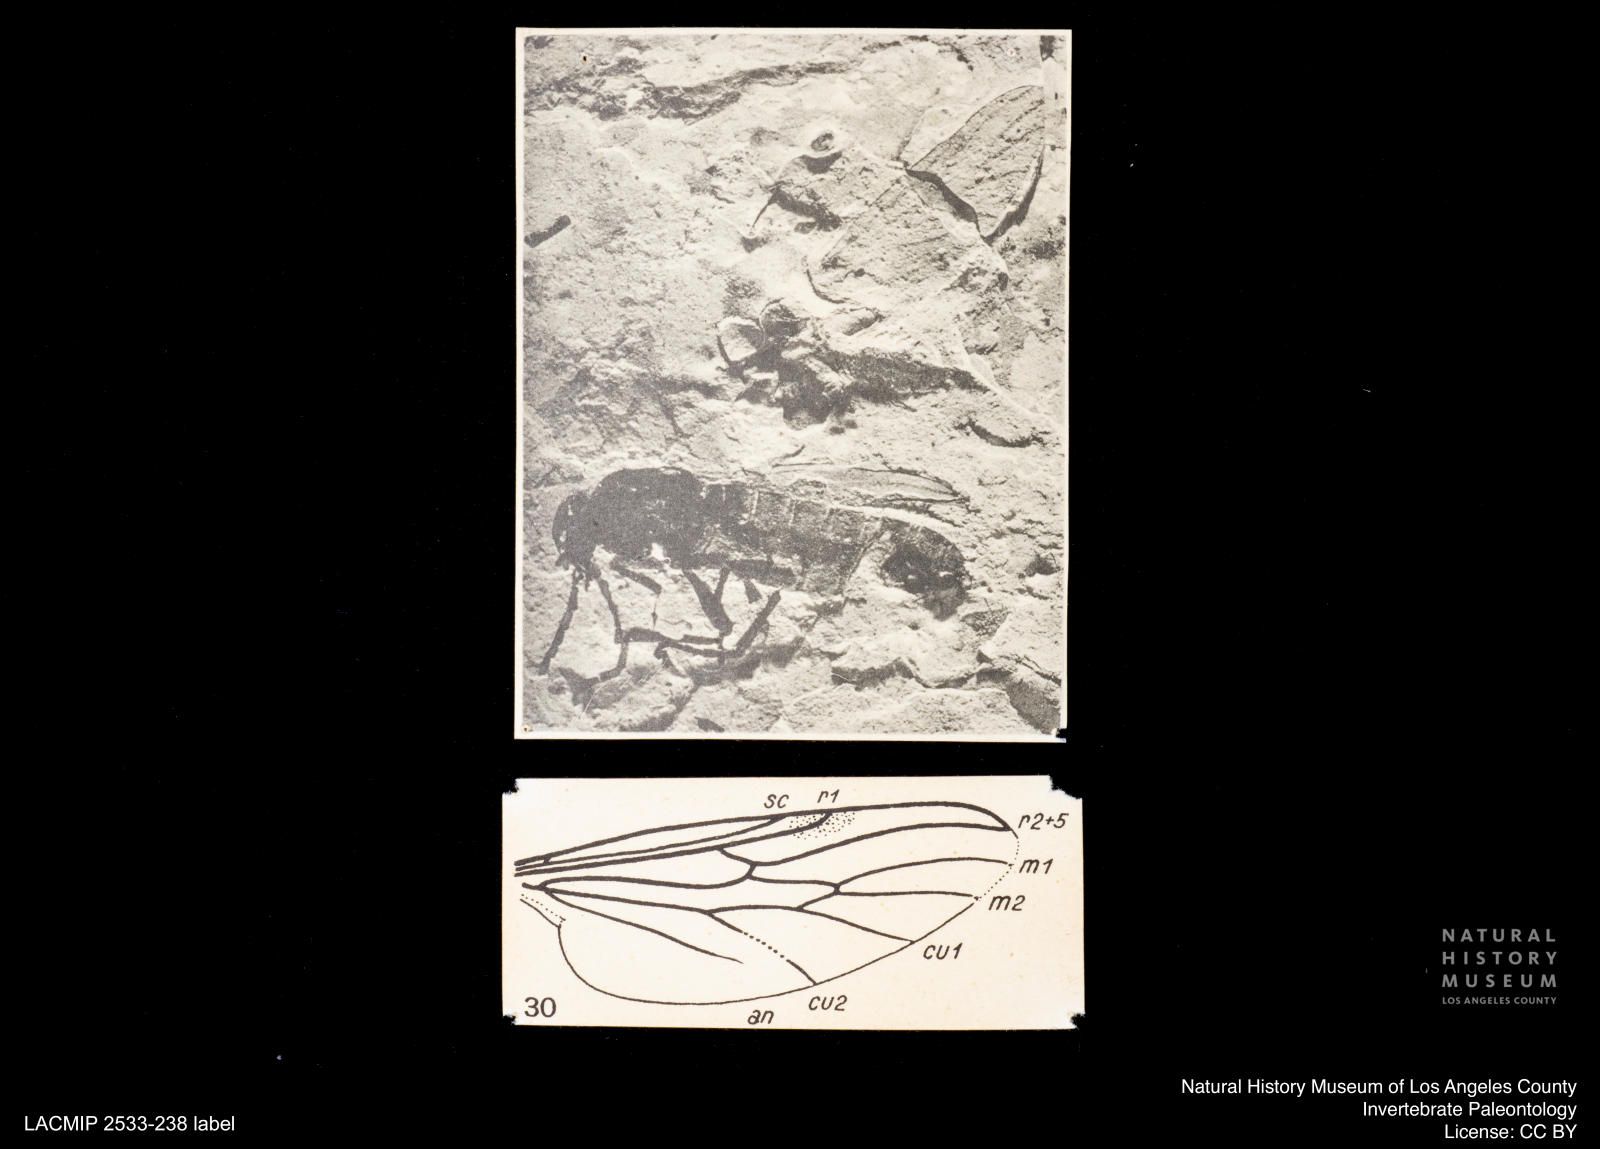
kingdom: Animalia
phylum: Arthropoda
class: Insecta
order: Diptera
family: Bibionidae
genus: Bibio
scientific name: Bibio rottensis
